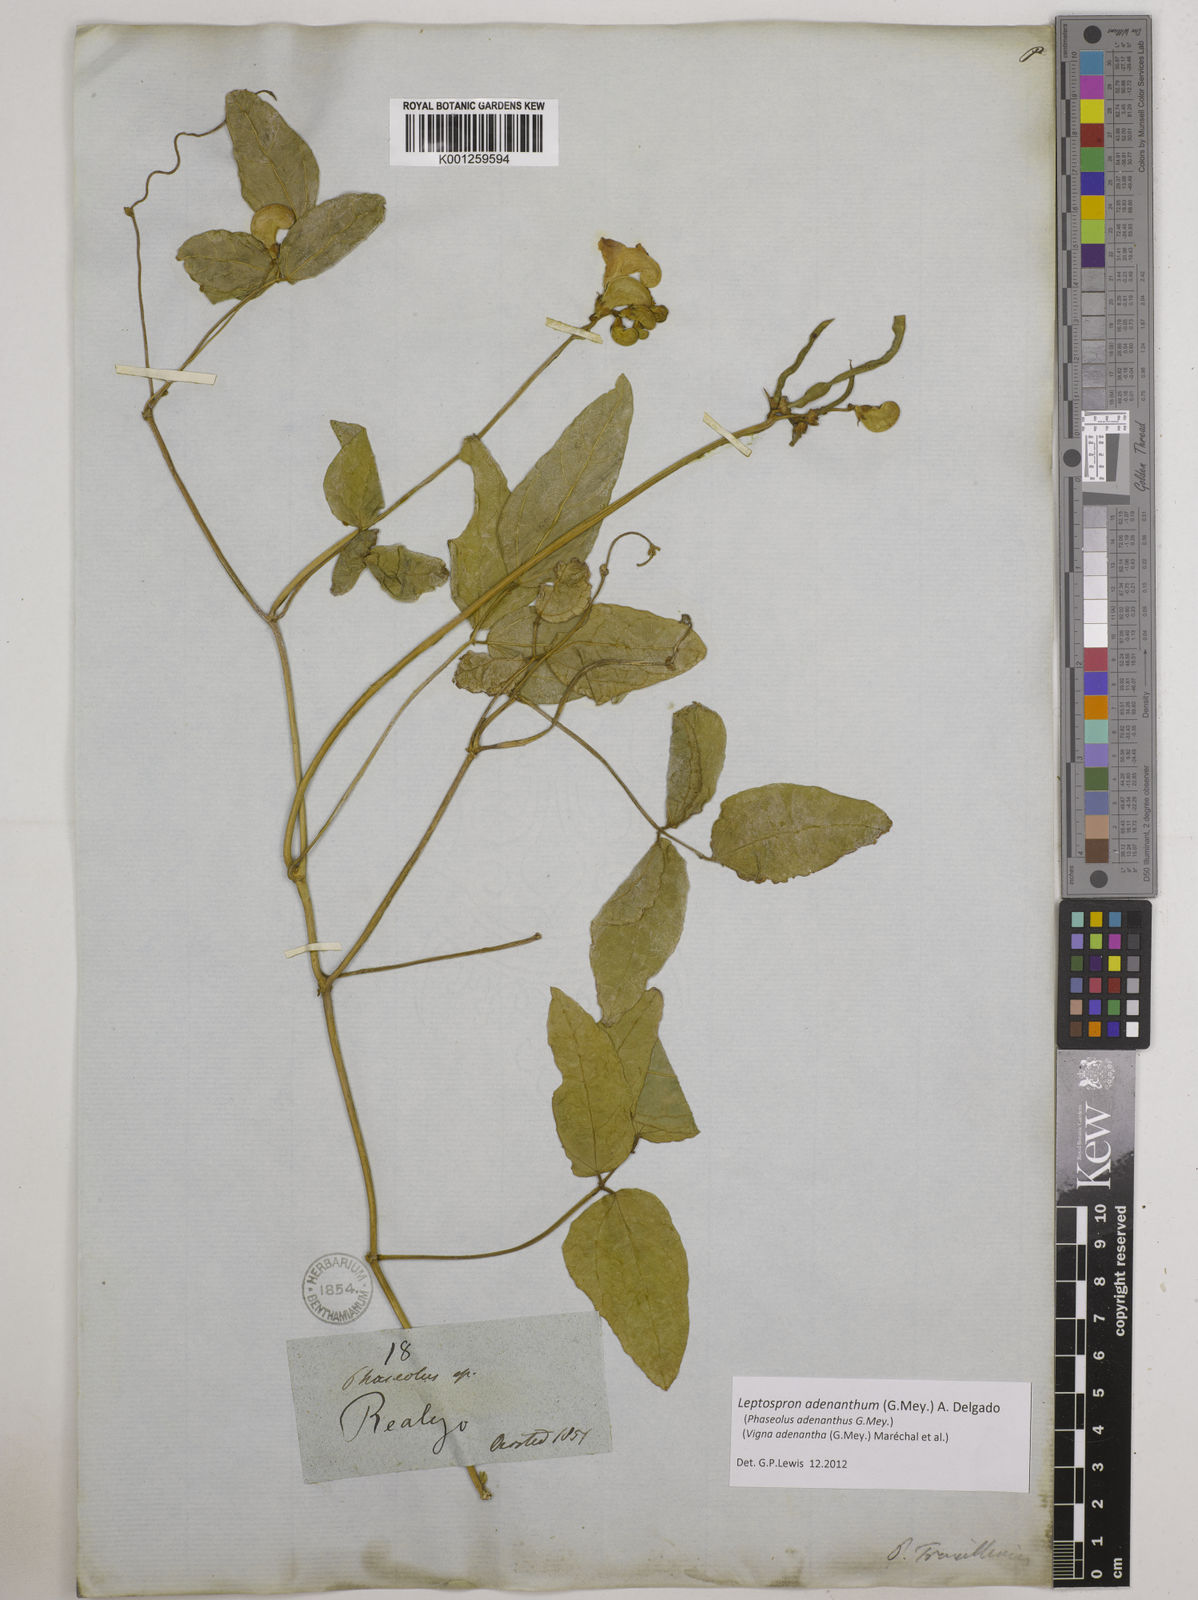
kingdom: Plantae
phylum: Tracheophyta
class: Magnoliopsida
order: Fabales
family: Fabaceae
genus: Leptospron
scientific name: Leptospron adenanthum
